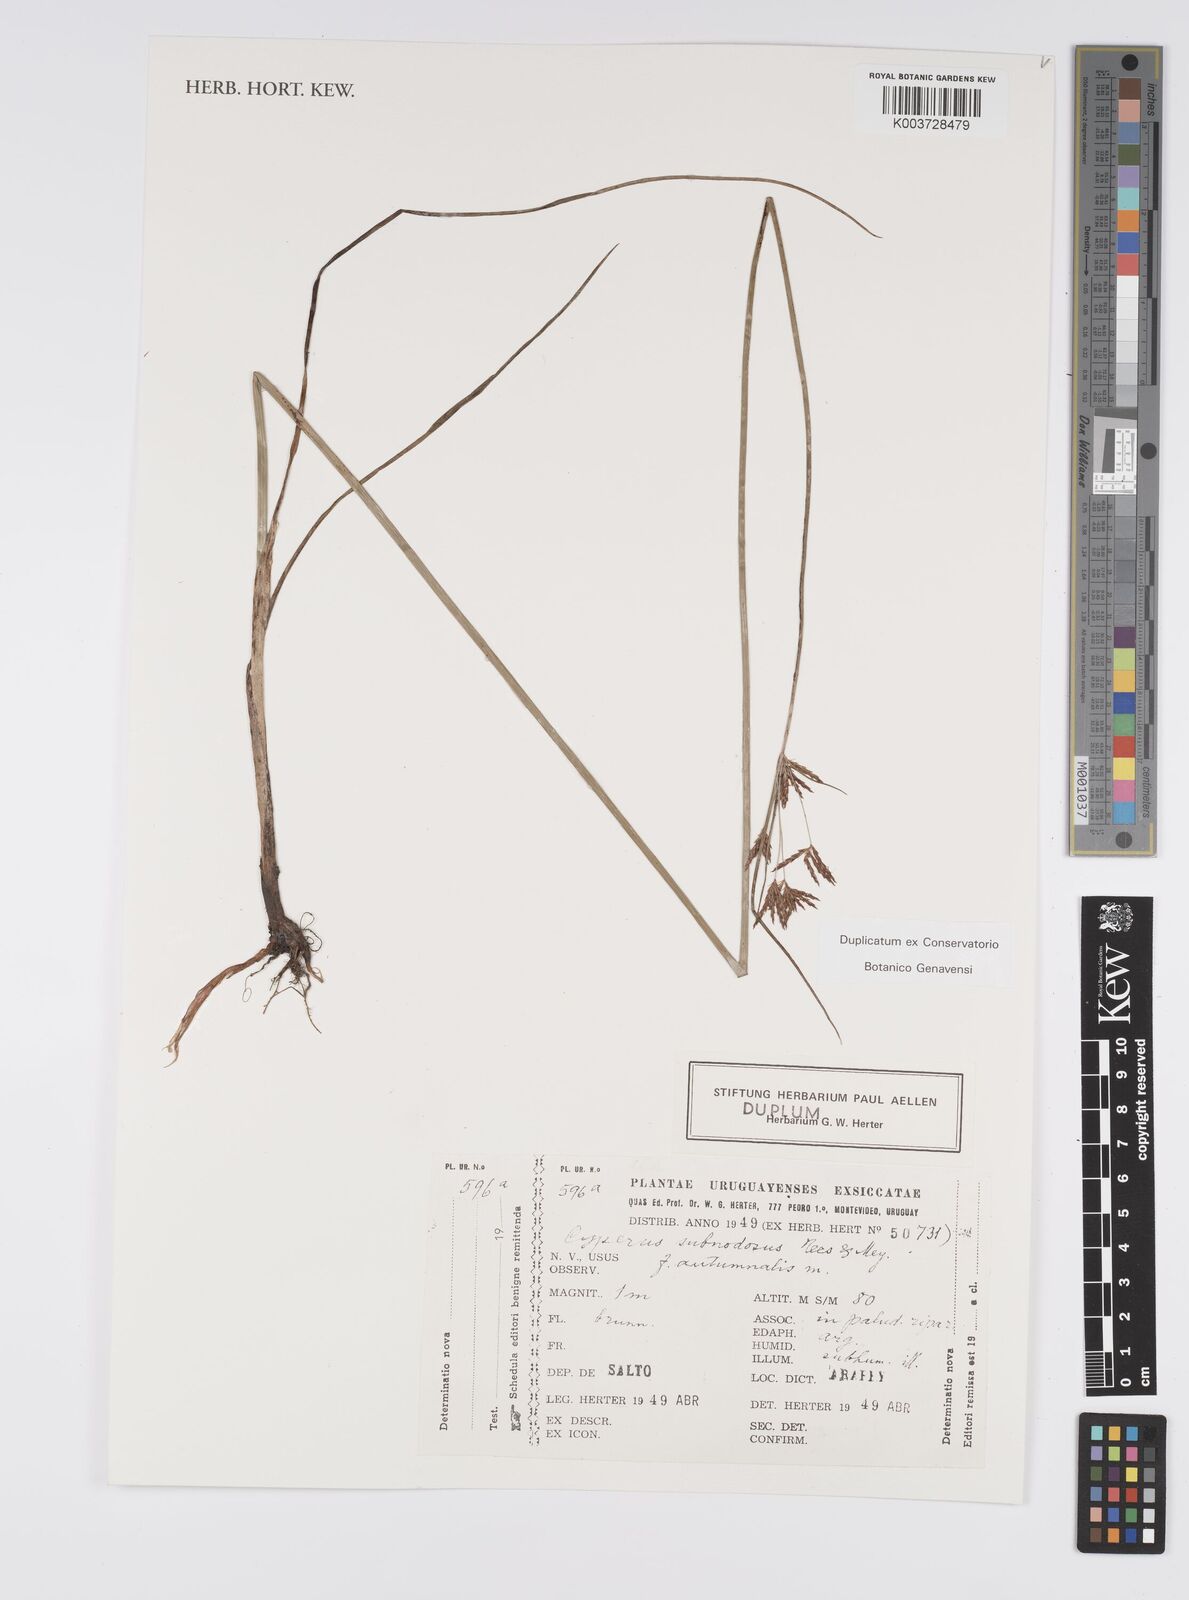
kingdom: Plantae
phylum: Tracheophyta
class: Liliopsida
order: Poales
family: Cyperaceae
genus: Cyperus
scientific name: Cyperus articulatus
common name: Jointed flatsedge
